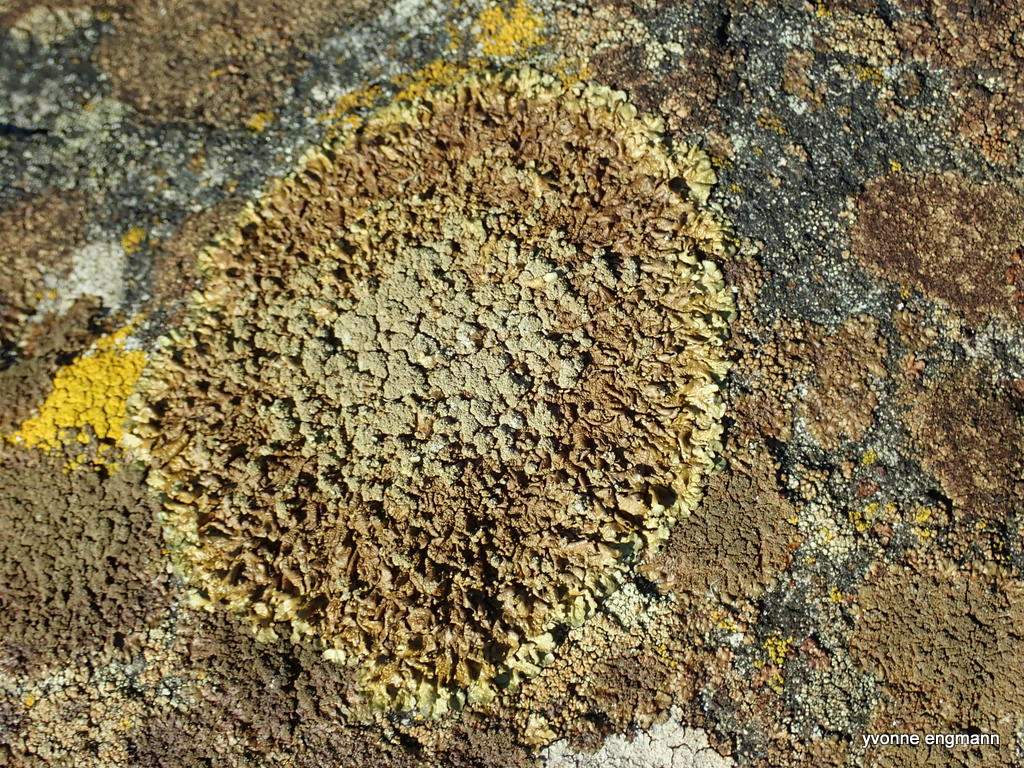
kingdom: Fungi
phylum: Ascomycota
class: Lecanoromycetes
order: Lecanorales
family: Parmeliaceae
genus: Xanthoparmelia
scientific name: Xanthoparmelia verruculifera
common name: småknoppet skållav
